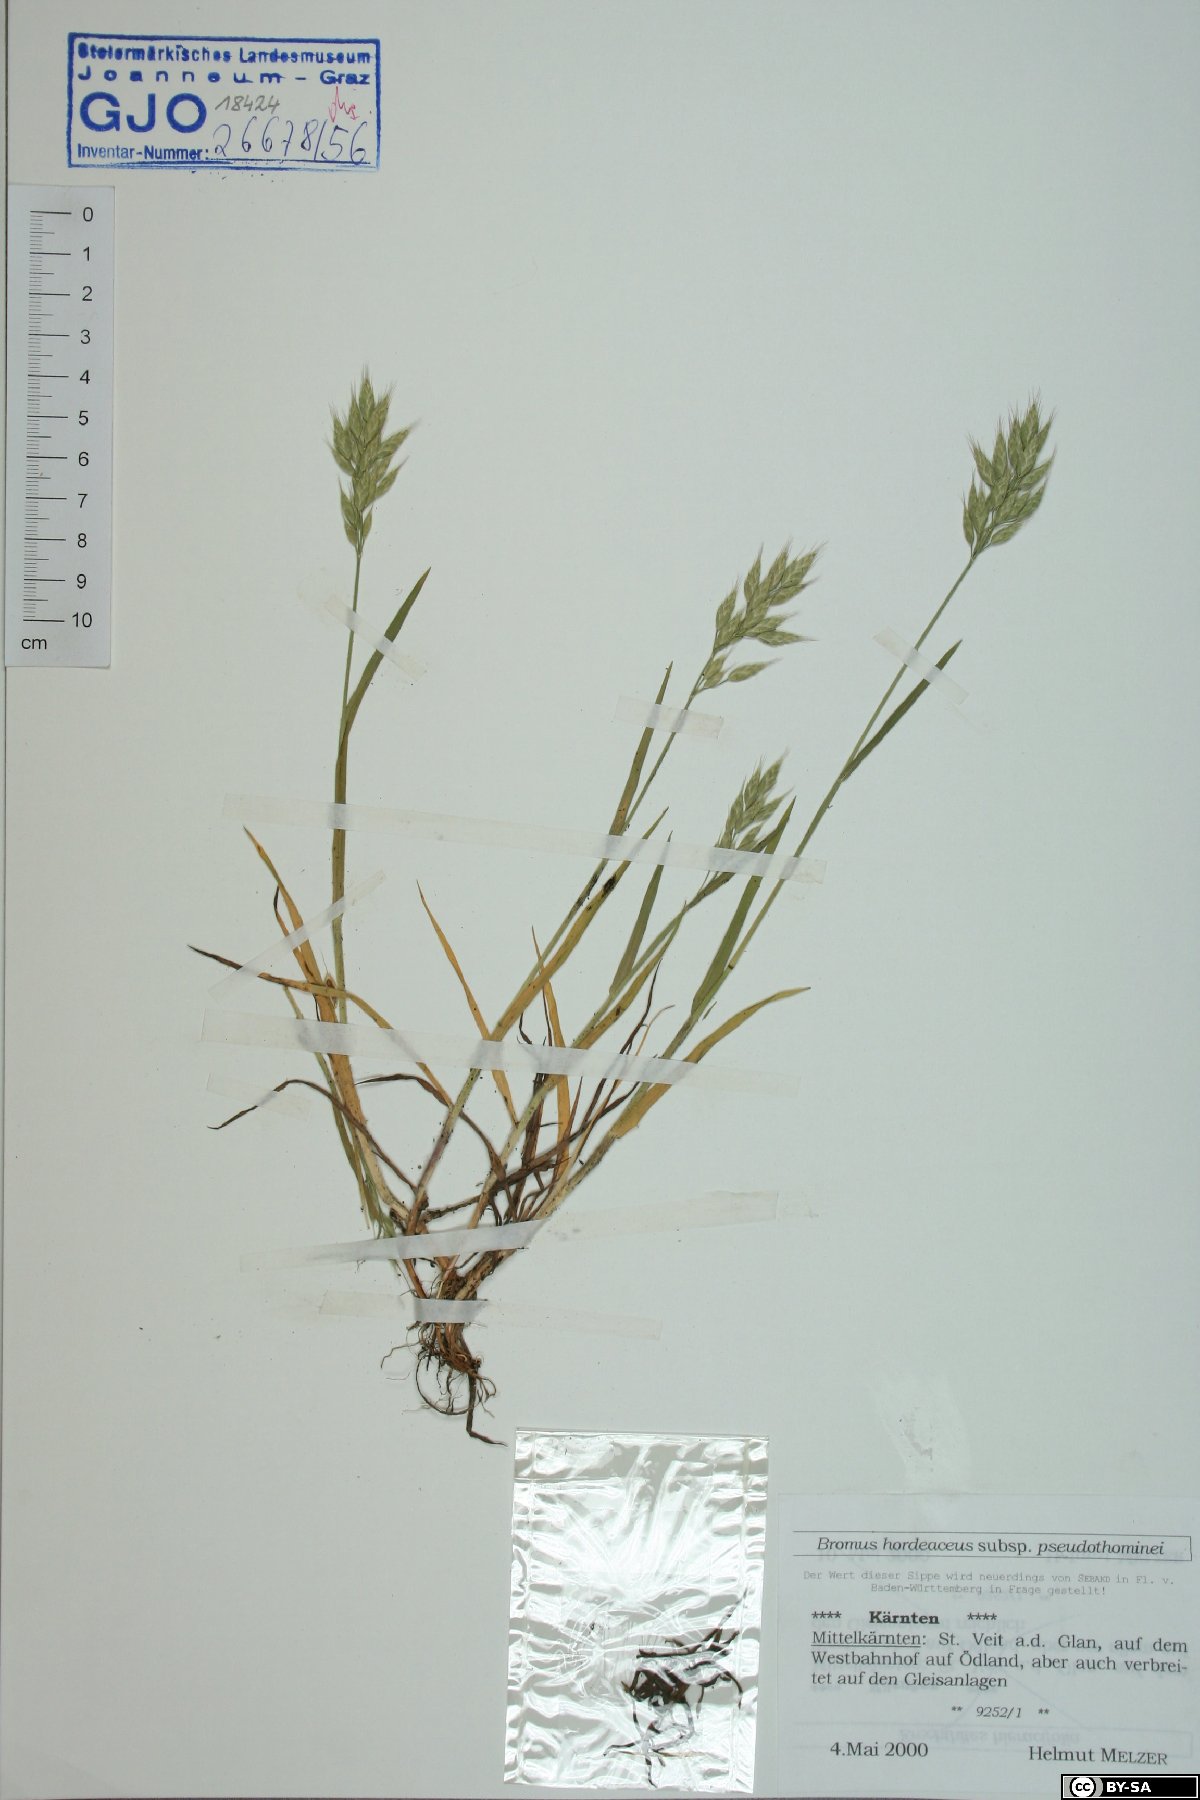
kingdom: Plantae
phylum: Tracheophyta
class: Liliopsida
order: Poales
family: Poaceae
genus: Bromus
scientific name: Bromus ferronii
